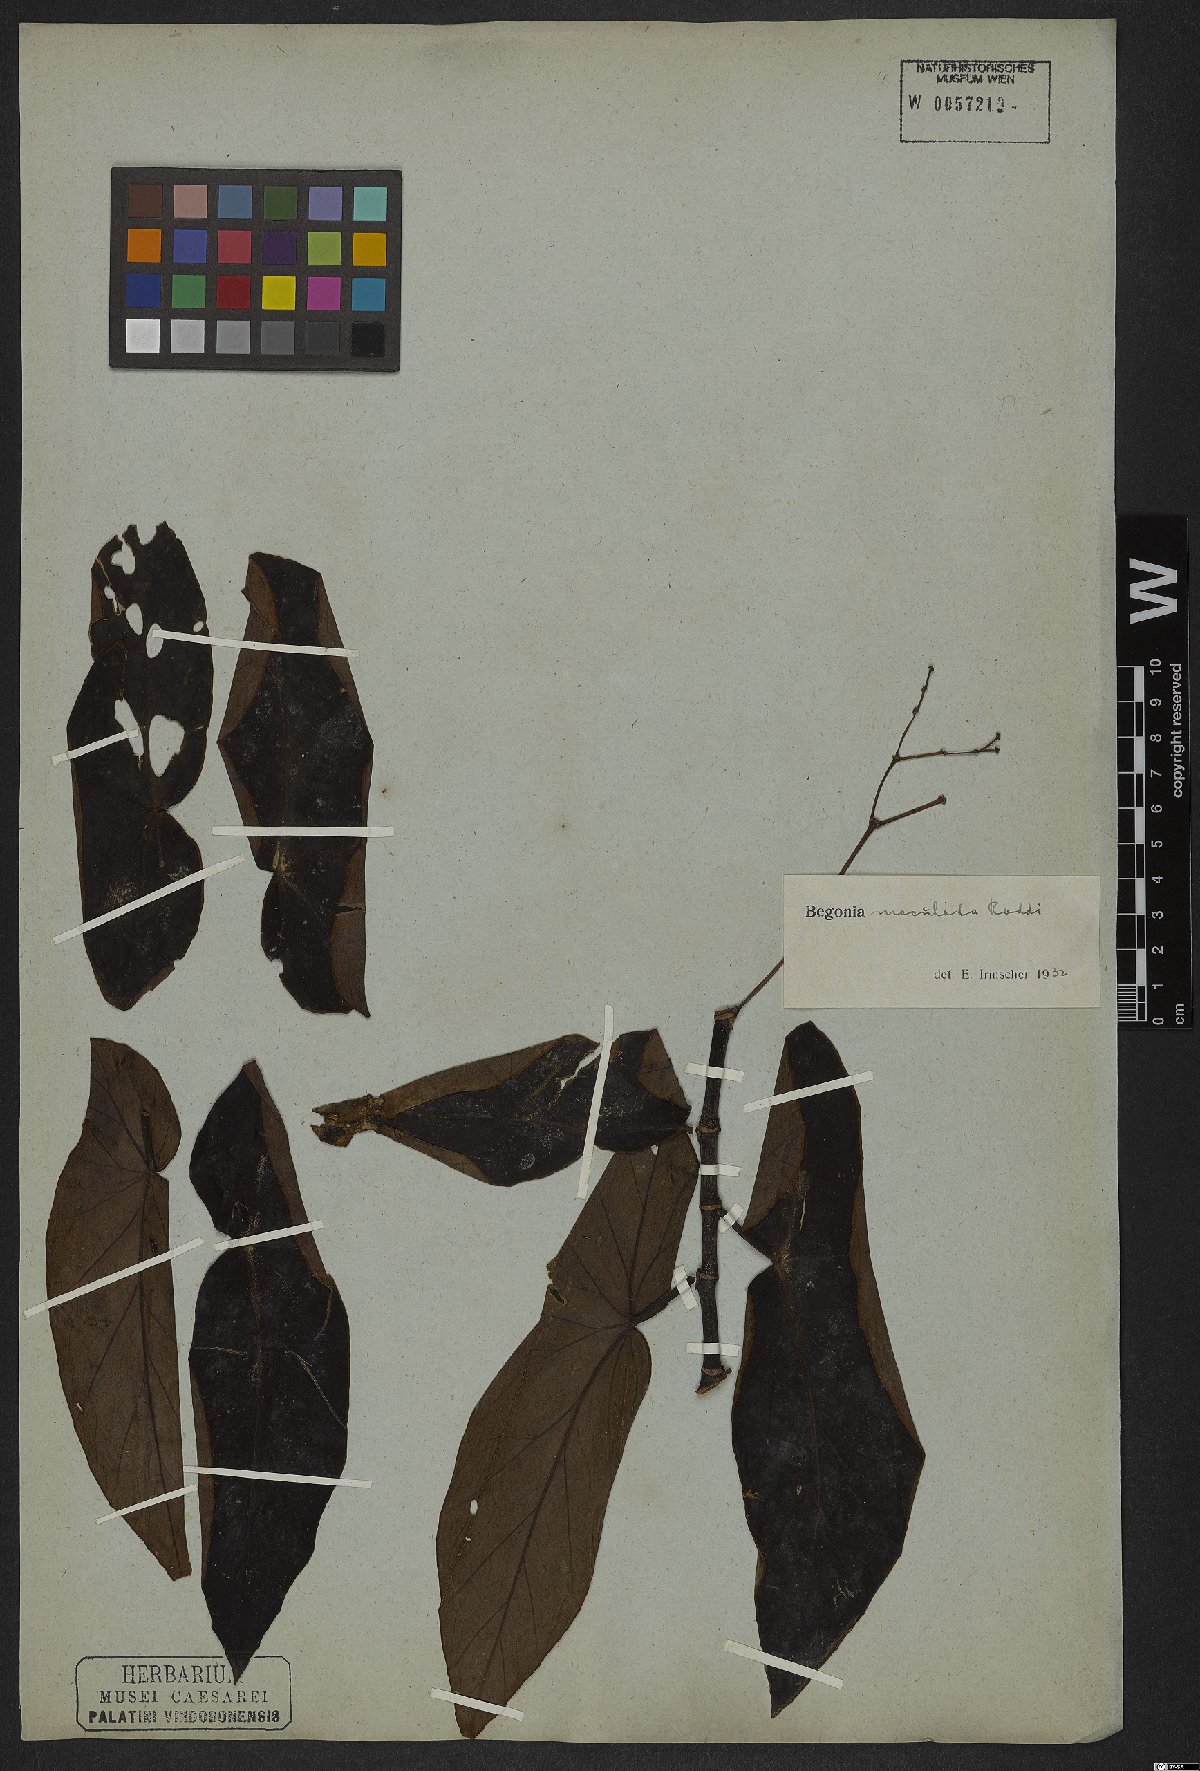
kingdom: Plantae
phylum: Tracheophyta
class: Magnoliopsida
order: Cucurbitales
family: Begoniaceae
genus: Begonia
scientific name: Begonia maculata
